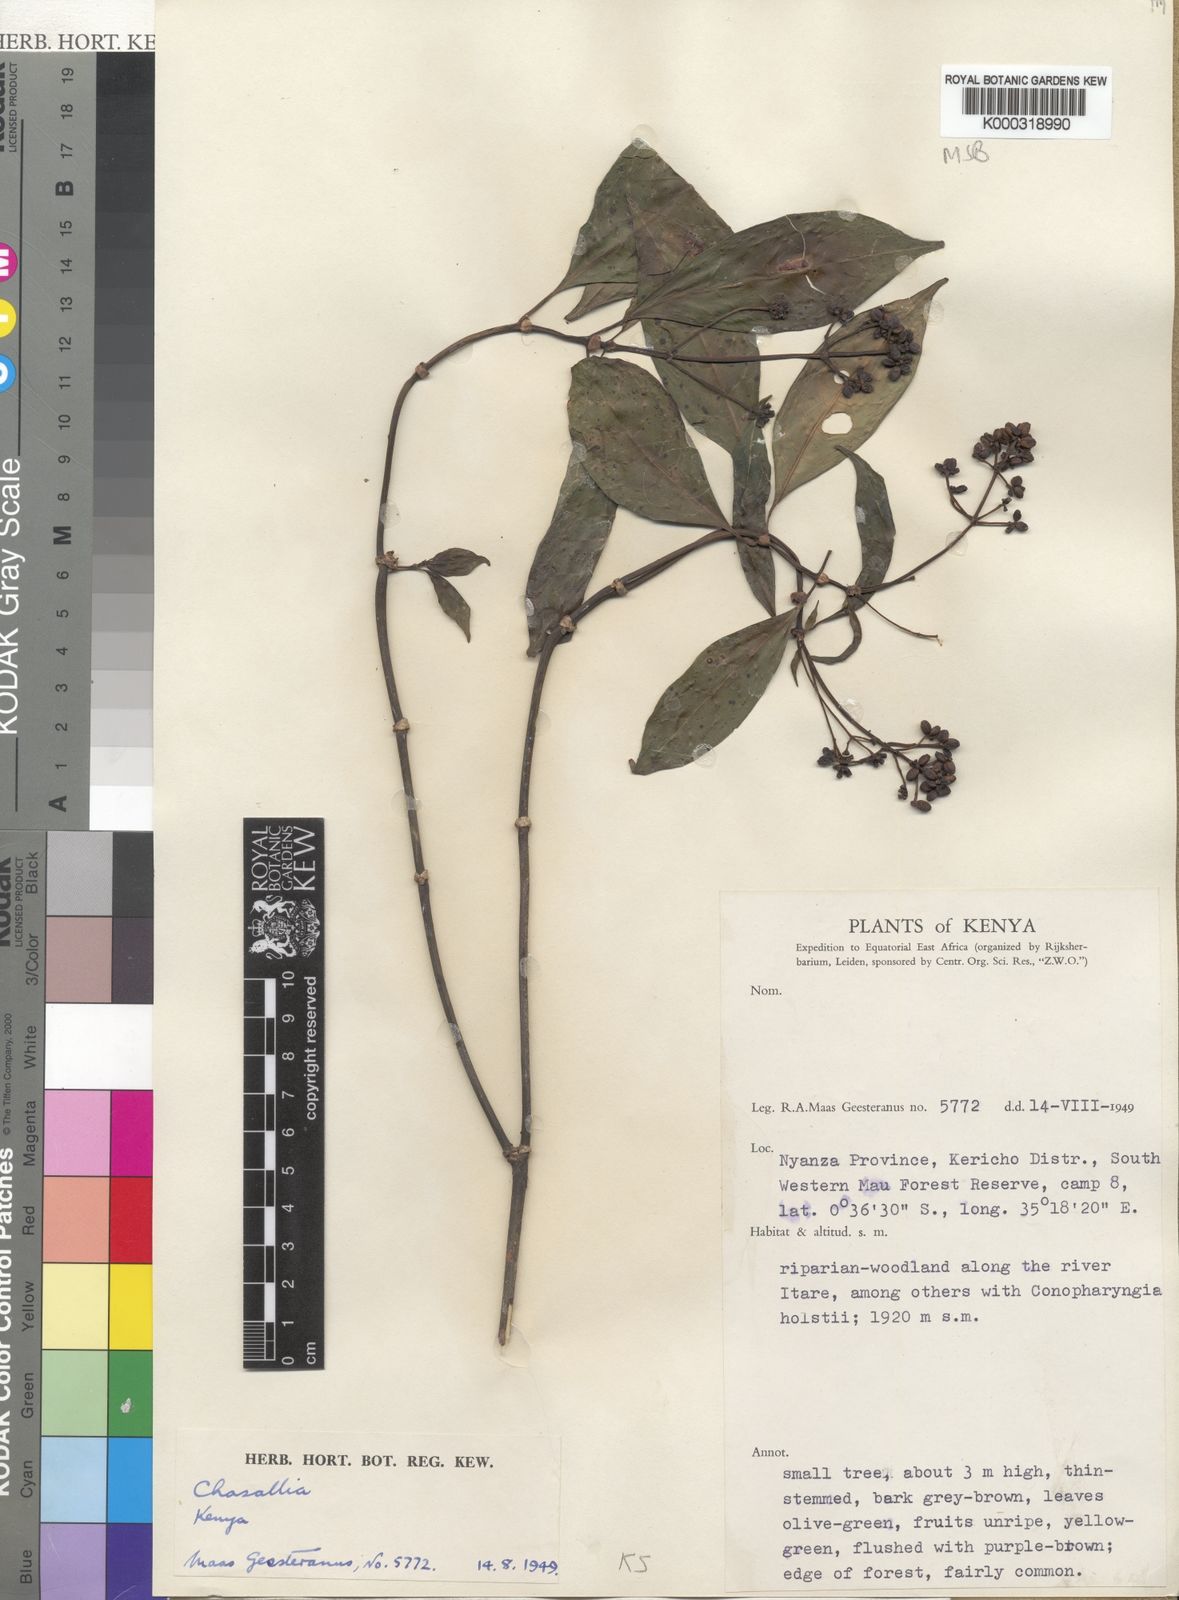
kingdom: Plantae
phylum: Tracheophyta
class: Magnoliopsida
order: Gentianales
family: Rubiaceae
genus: Chassalia
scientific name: Chassalia subochreata
